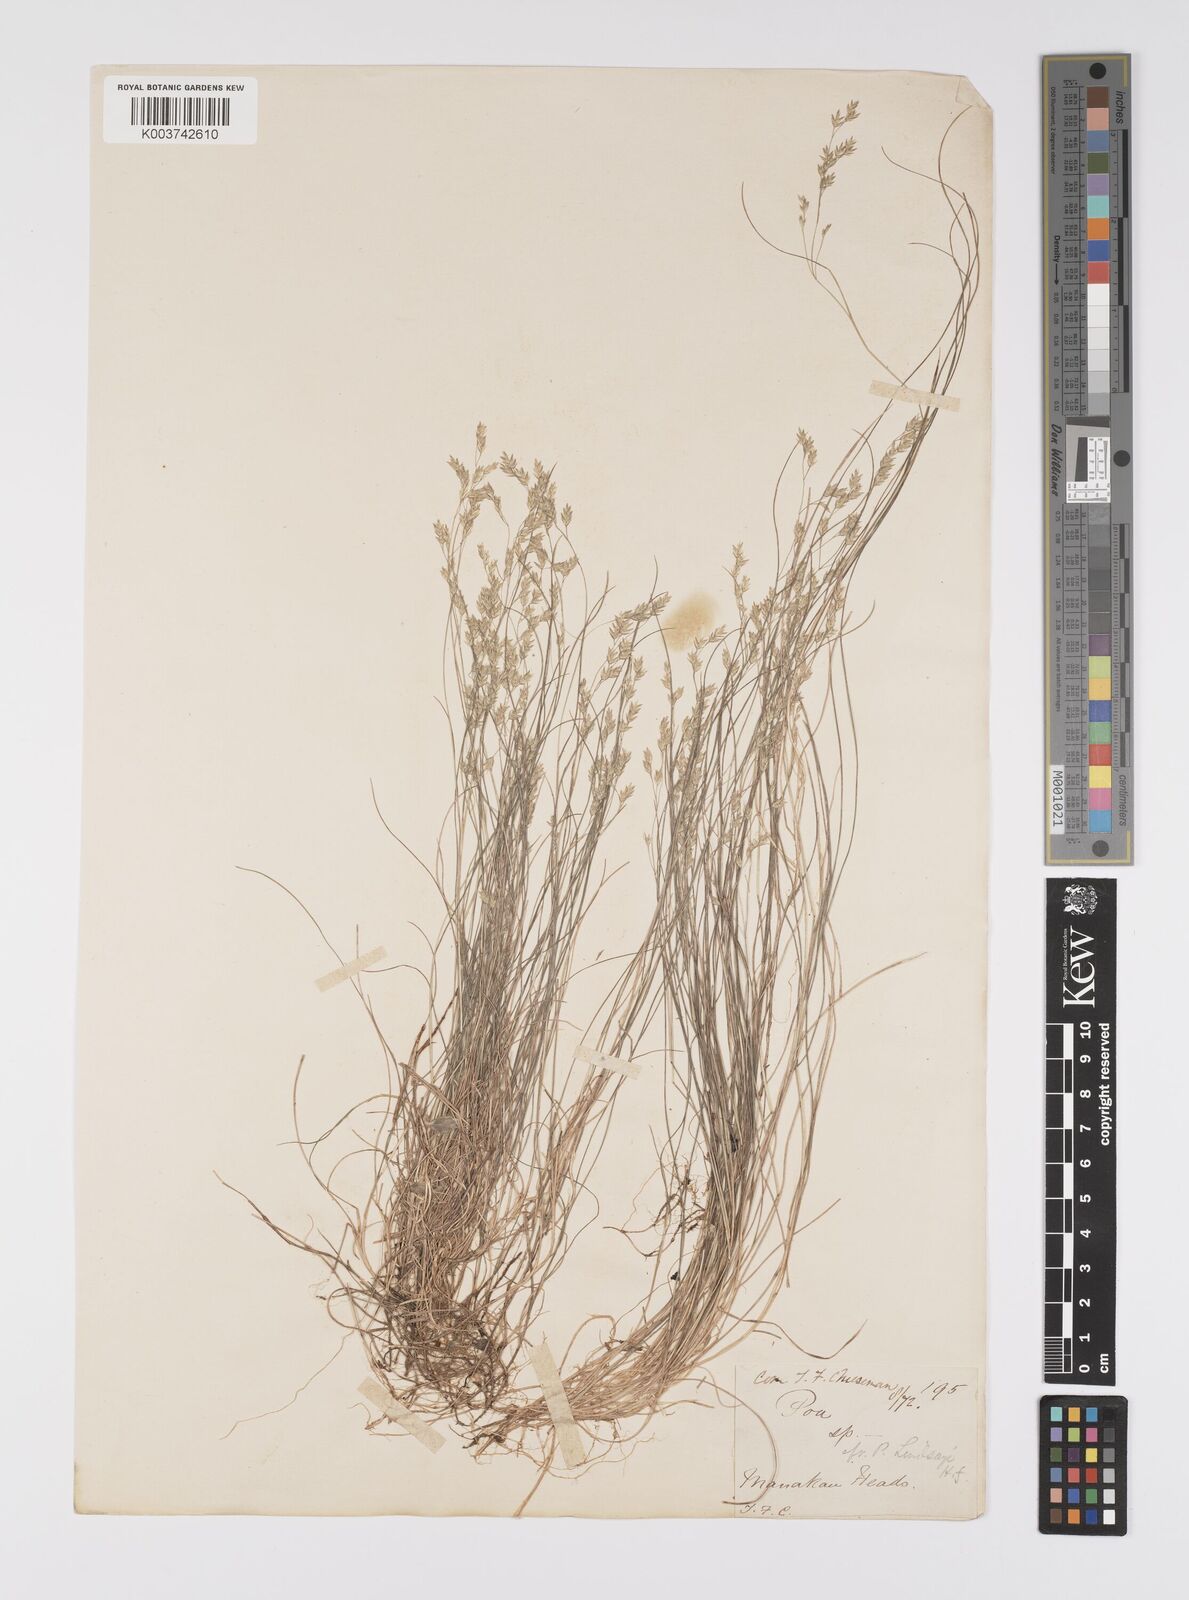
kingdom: Plantae
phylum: Tracheophyta
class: Liliopsida
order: Poales
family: Poaceae
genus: Poa
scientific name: Poa pusilla
